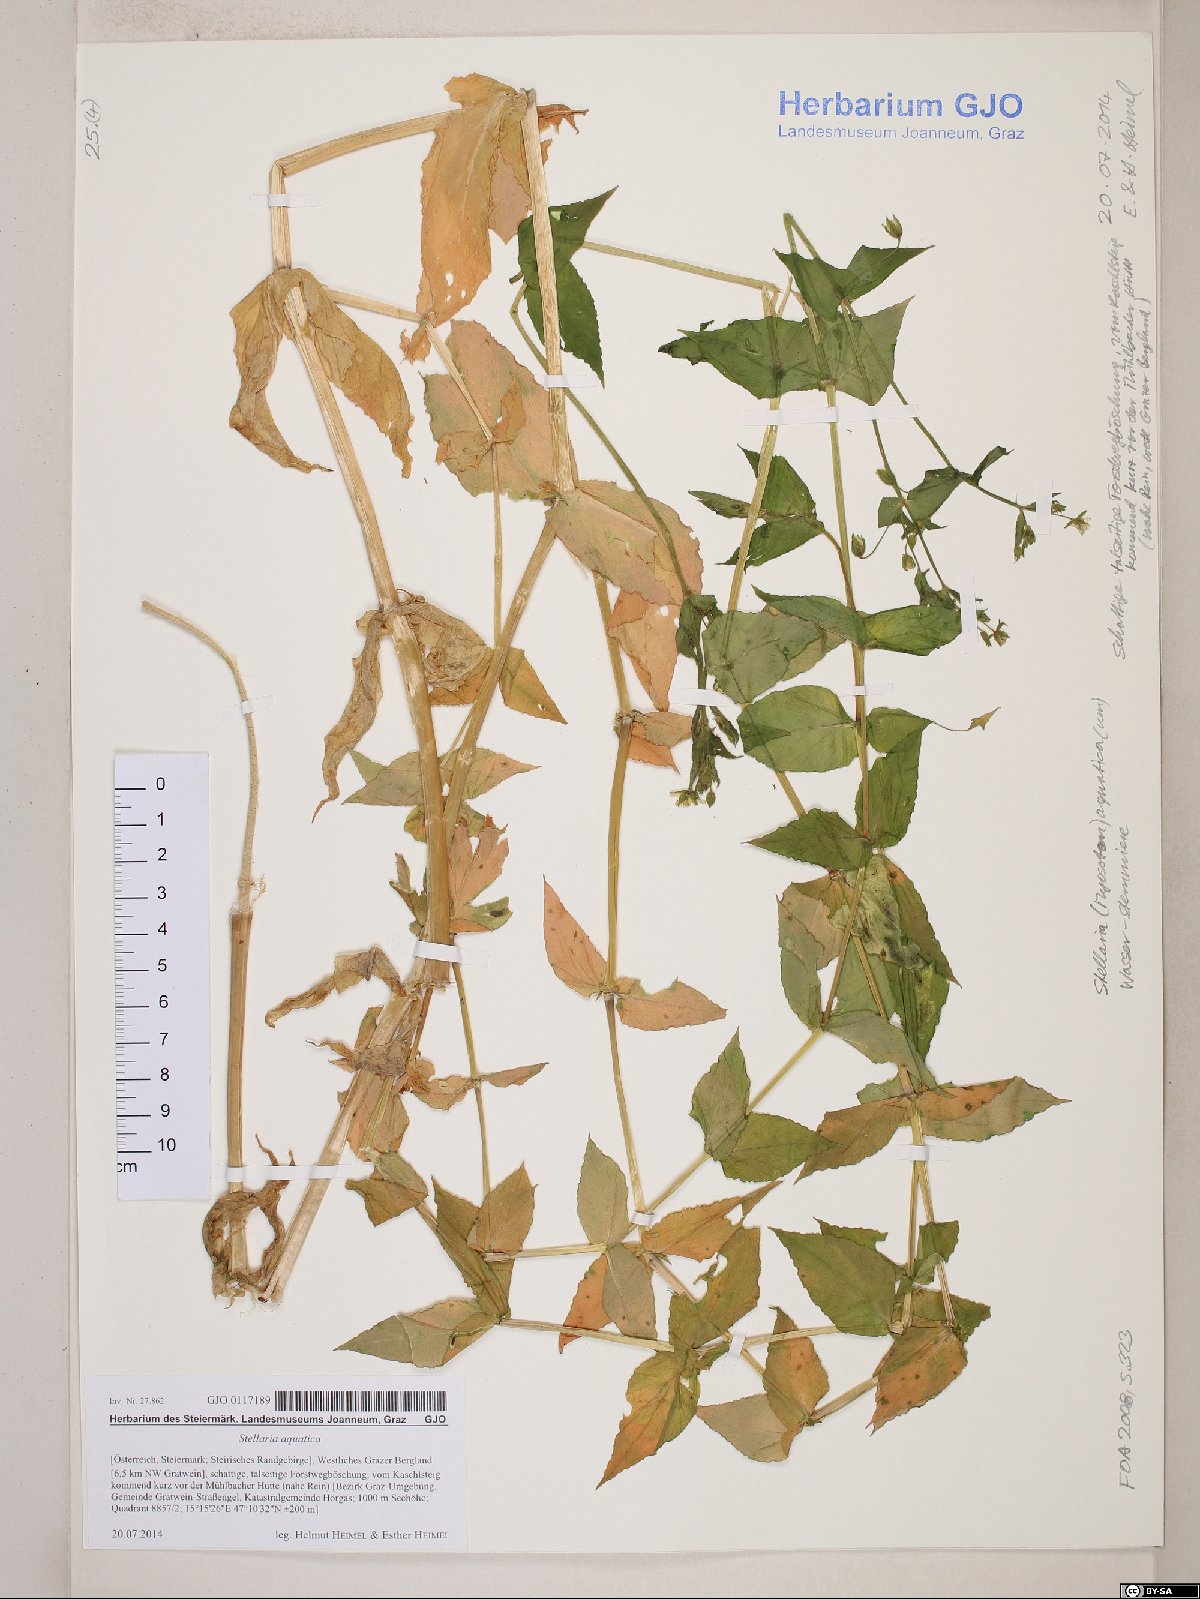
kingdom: Plantae
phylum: Tracheophyta
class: Magnoliopsida
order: Caryophyllales
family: Caryophyllaceae
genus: Stellaria
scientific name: Stellaria aquatica
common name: Water chickweed
